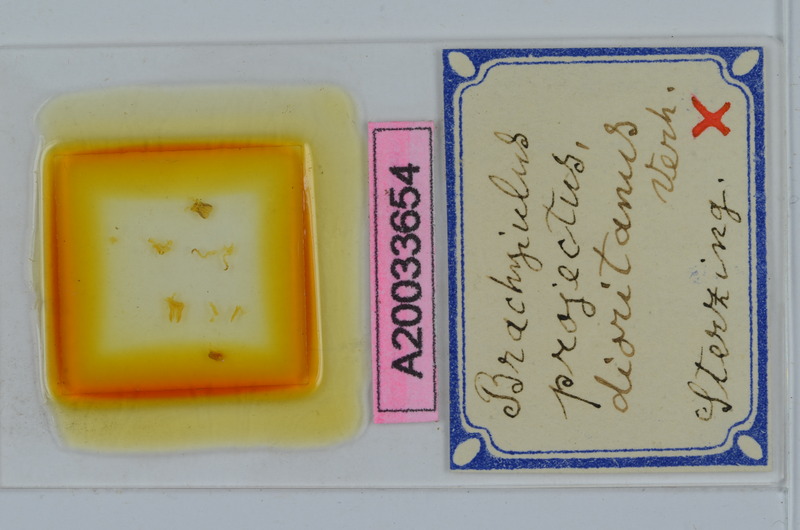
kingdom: Animalia
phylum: Arthropoda
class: Diplopoda
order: Julida
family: Julidae
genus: Megaphyllum
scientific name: Megaphyllum projectum
